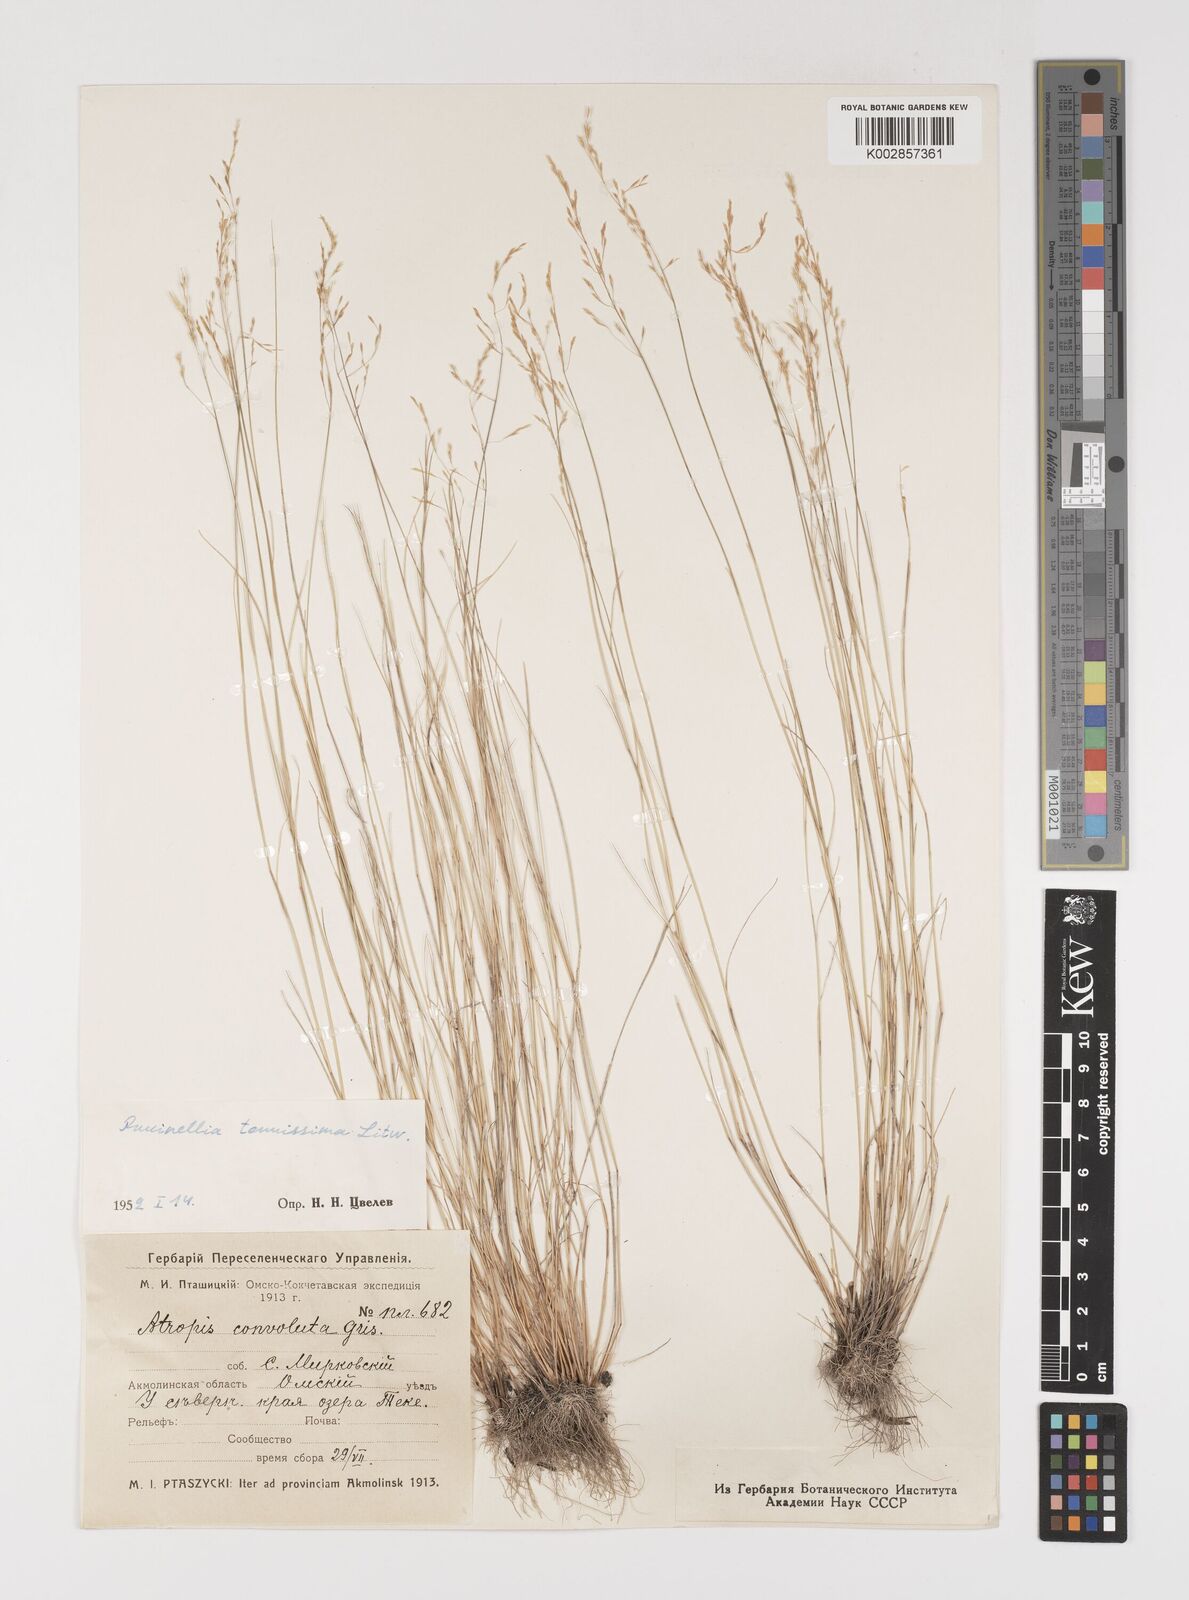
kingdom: Plantae
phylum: Tracheophyta
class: Liliopsida
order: Poales
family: Poaceae
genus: Puccinellia
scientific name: Puccinellia tenuissima
